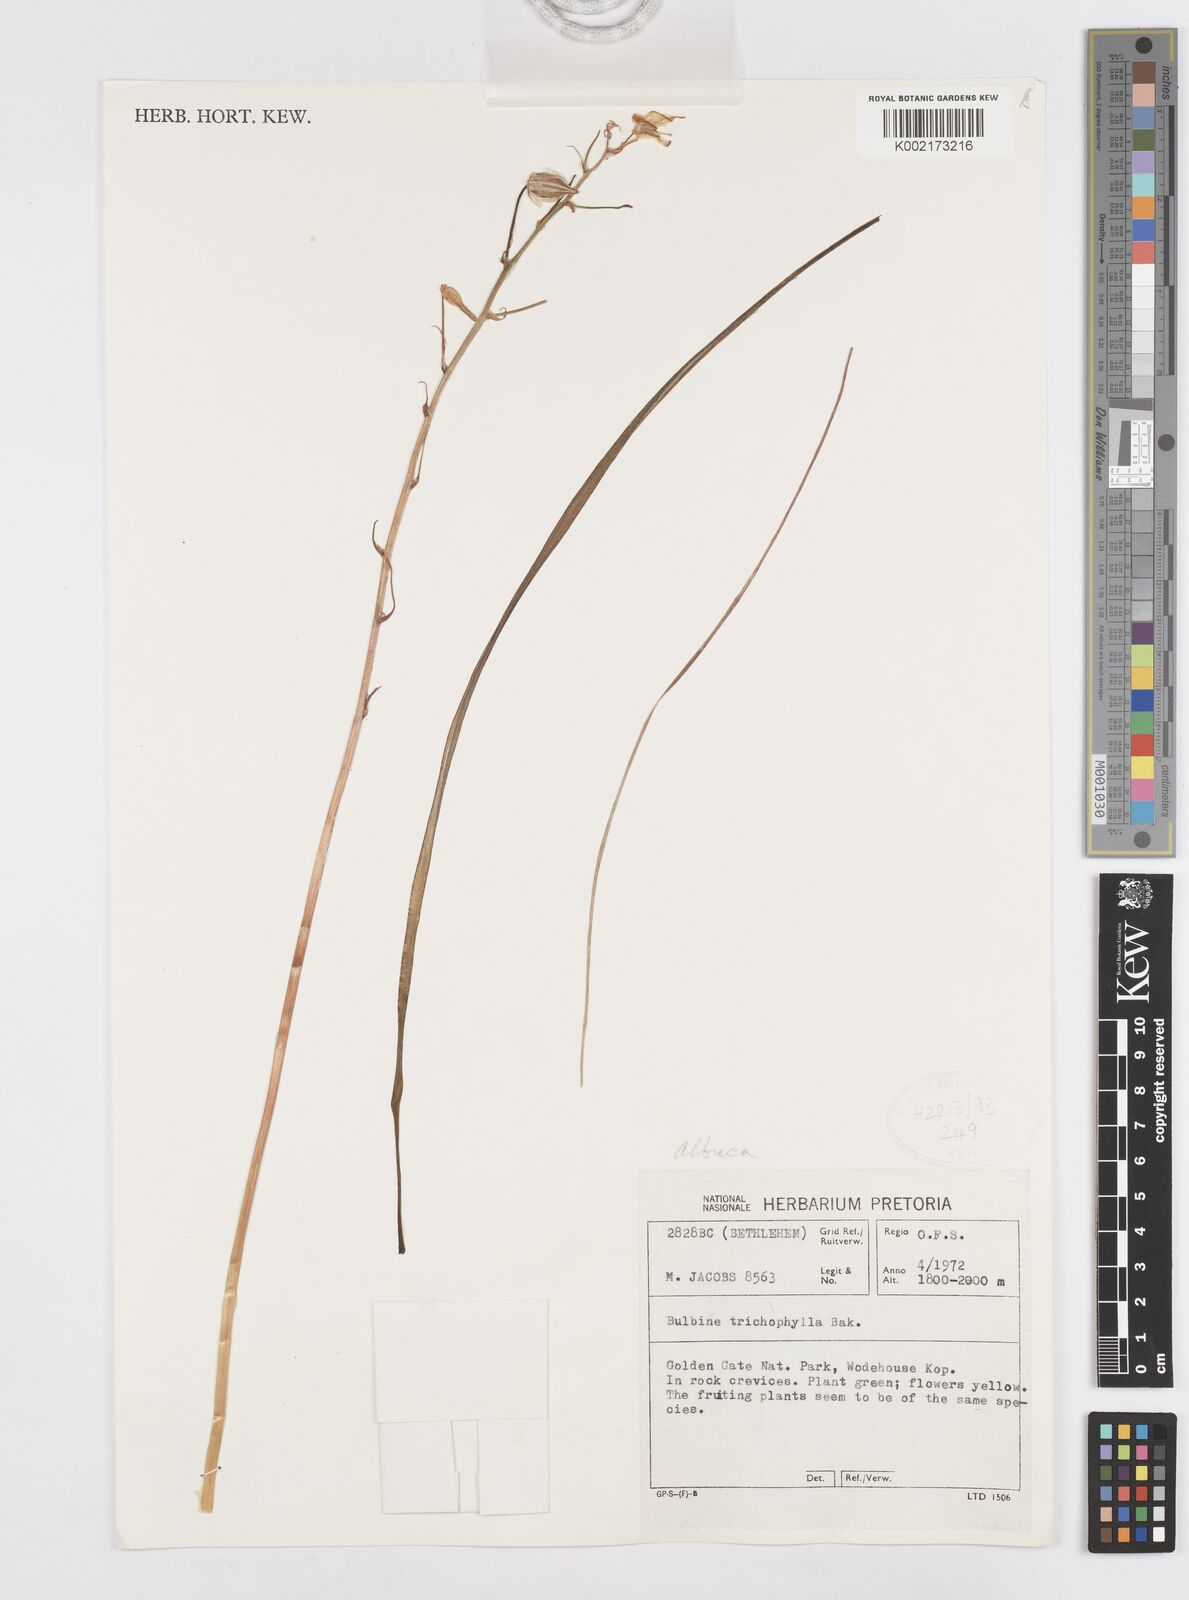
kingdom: Plantae
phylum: Tracheophyta
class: Liliopsida
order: Asparagales
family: Asparagaceae
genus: Albuca
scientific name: Albuca
